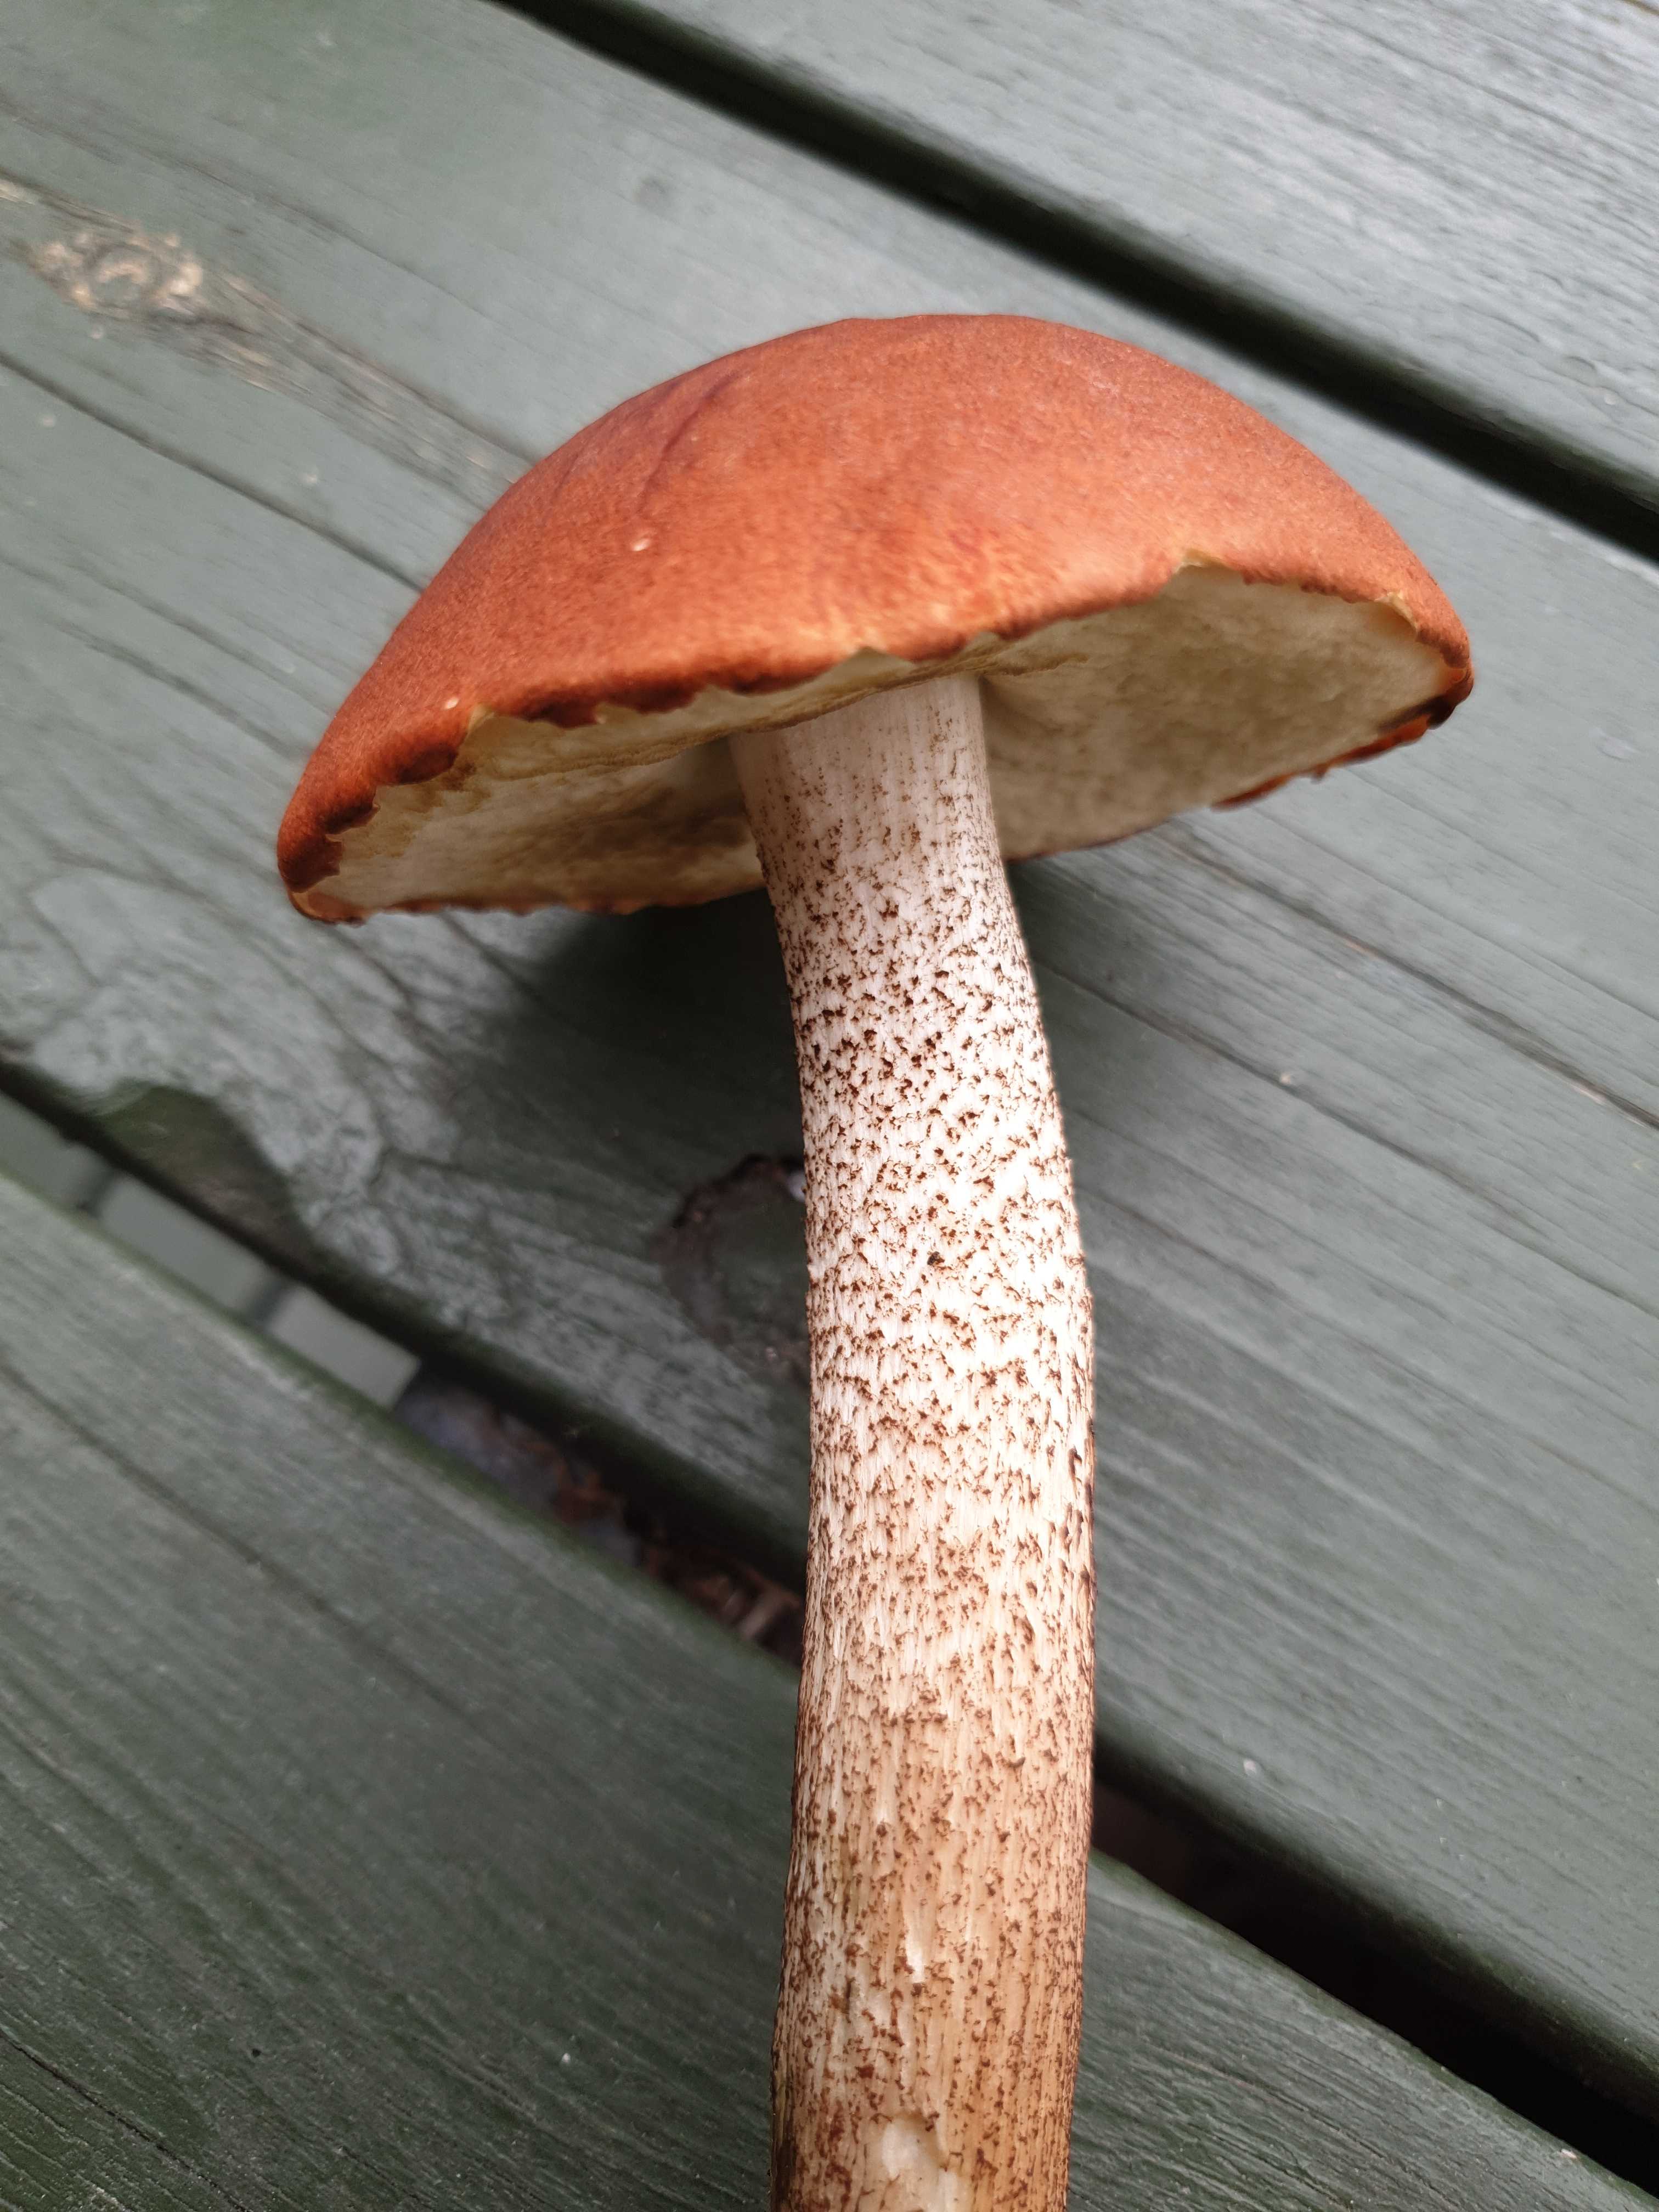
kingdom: Fungi
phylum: Basidiomycota
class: Agaricomycetes
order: Boletales
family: Boletaceae
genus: Leccinum
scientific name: Leccinum
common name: skælrørhat
